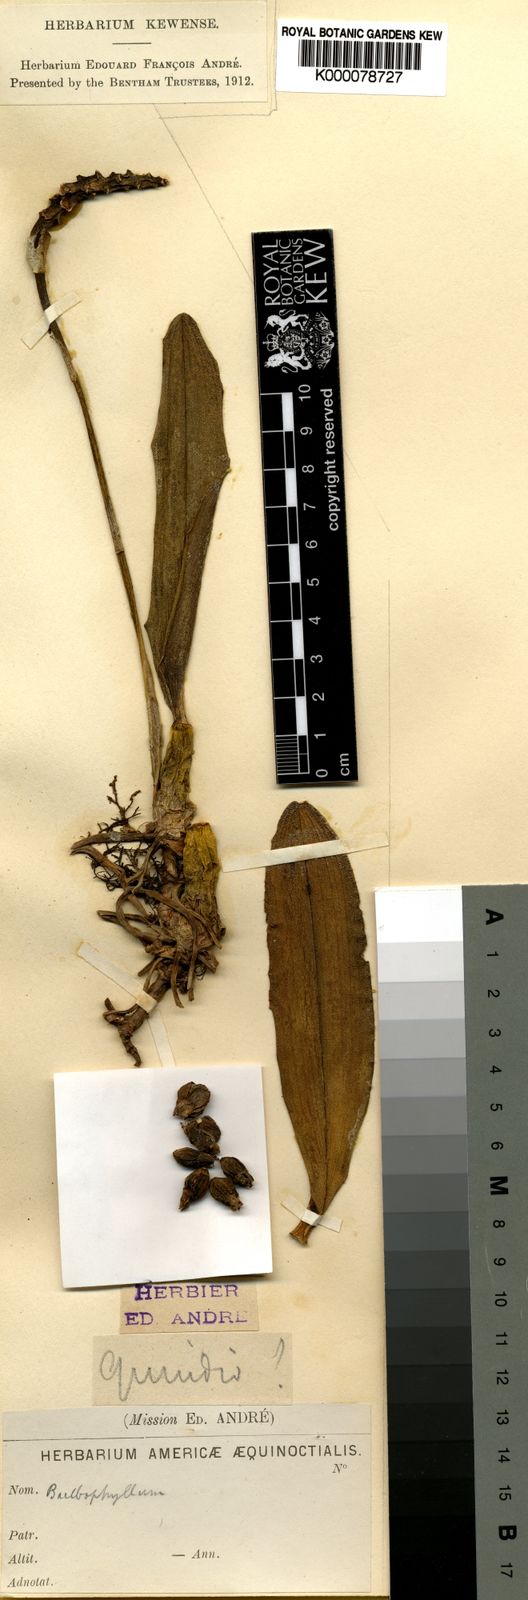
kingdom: Plantae
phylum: Tracheophyta
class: Liliopsida
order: Asparagales
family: Orchidaceae
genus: Bulbophyllum
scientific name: Bulbophyllum
